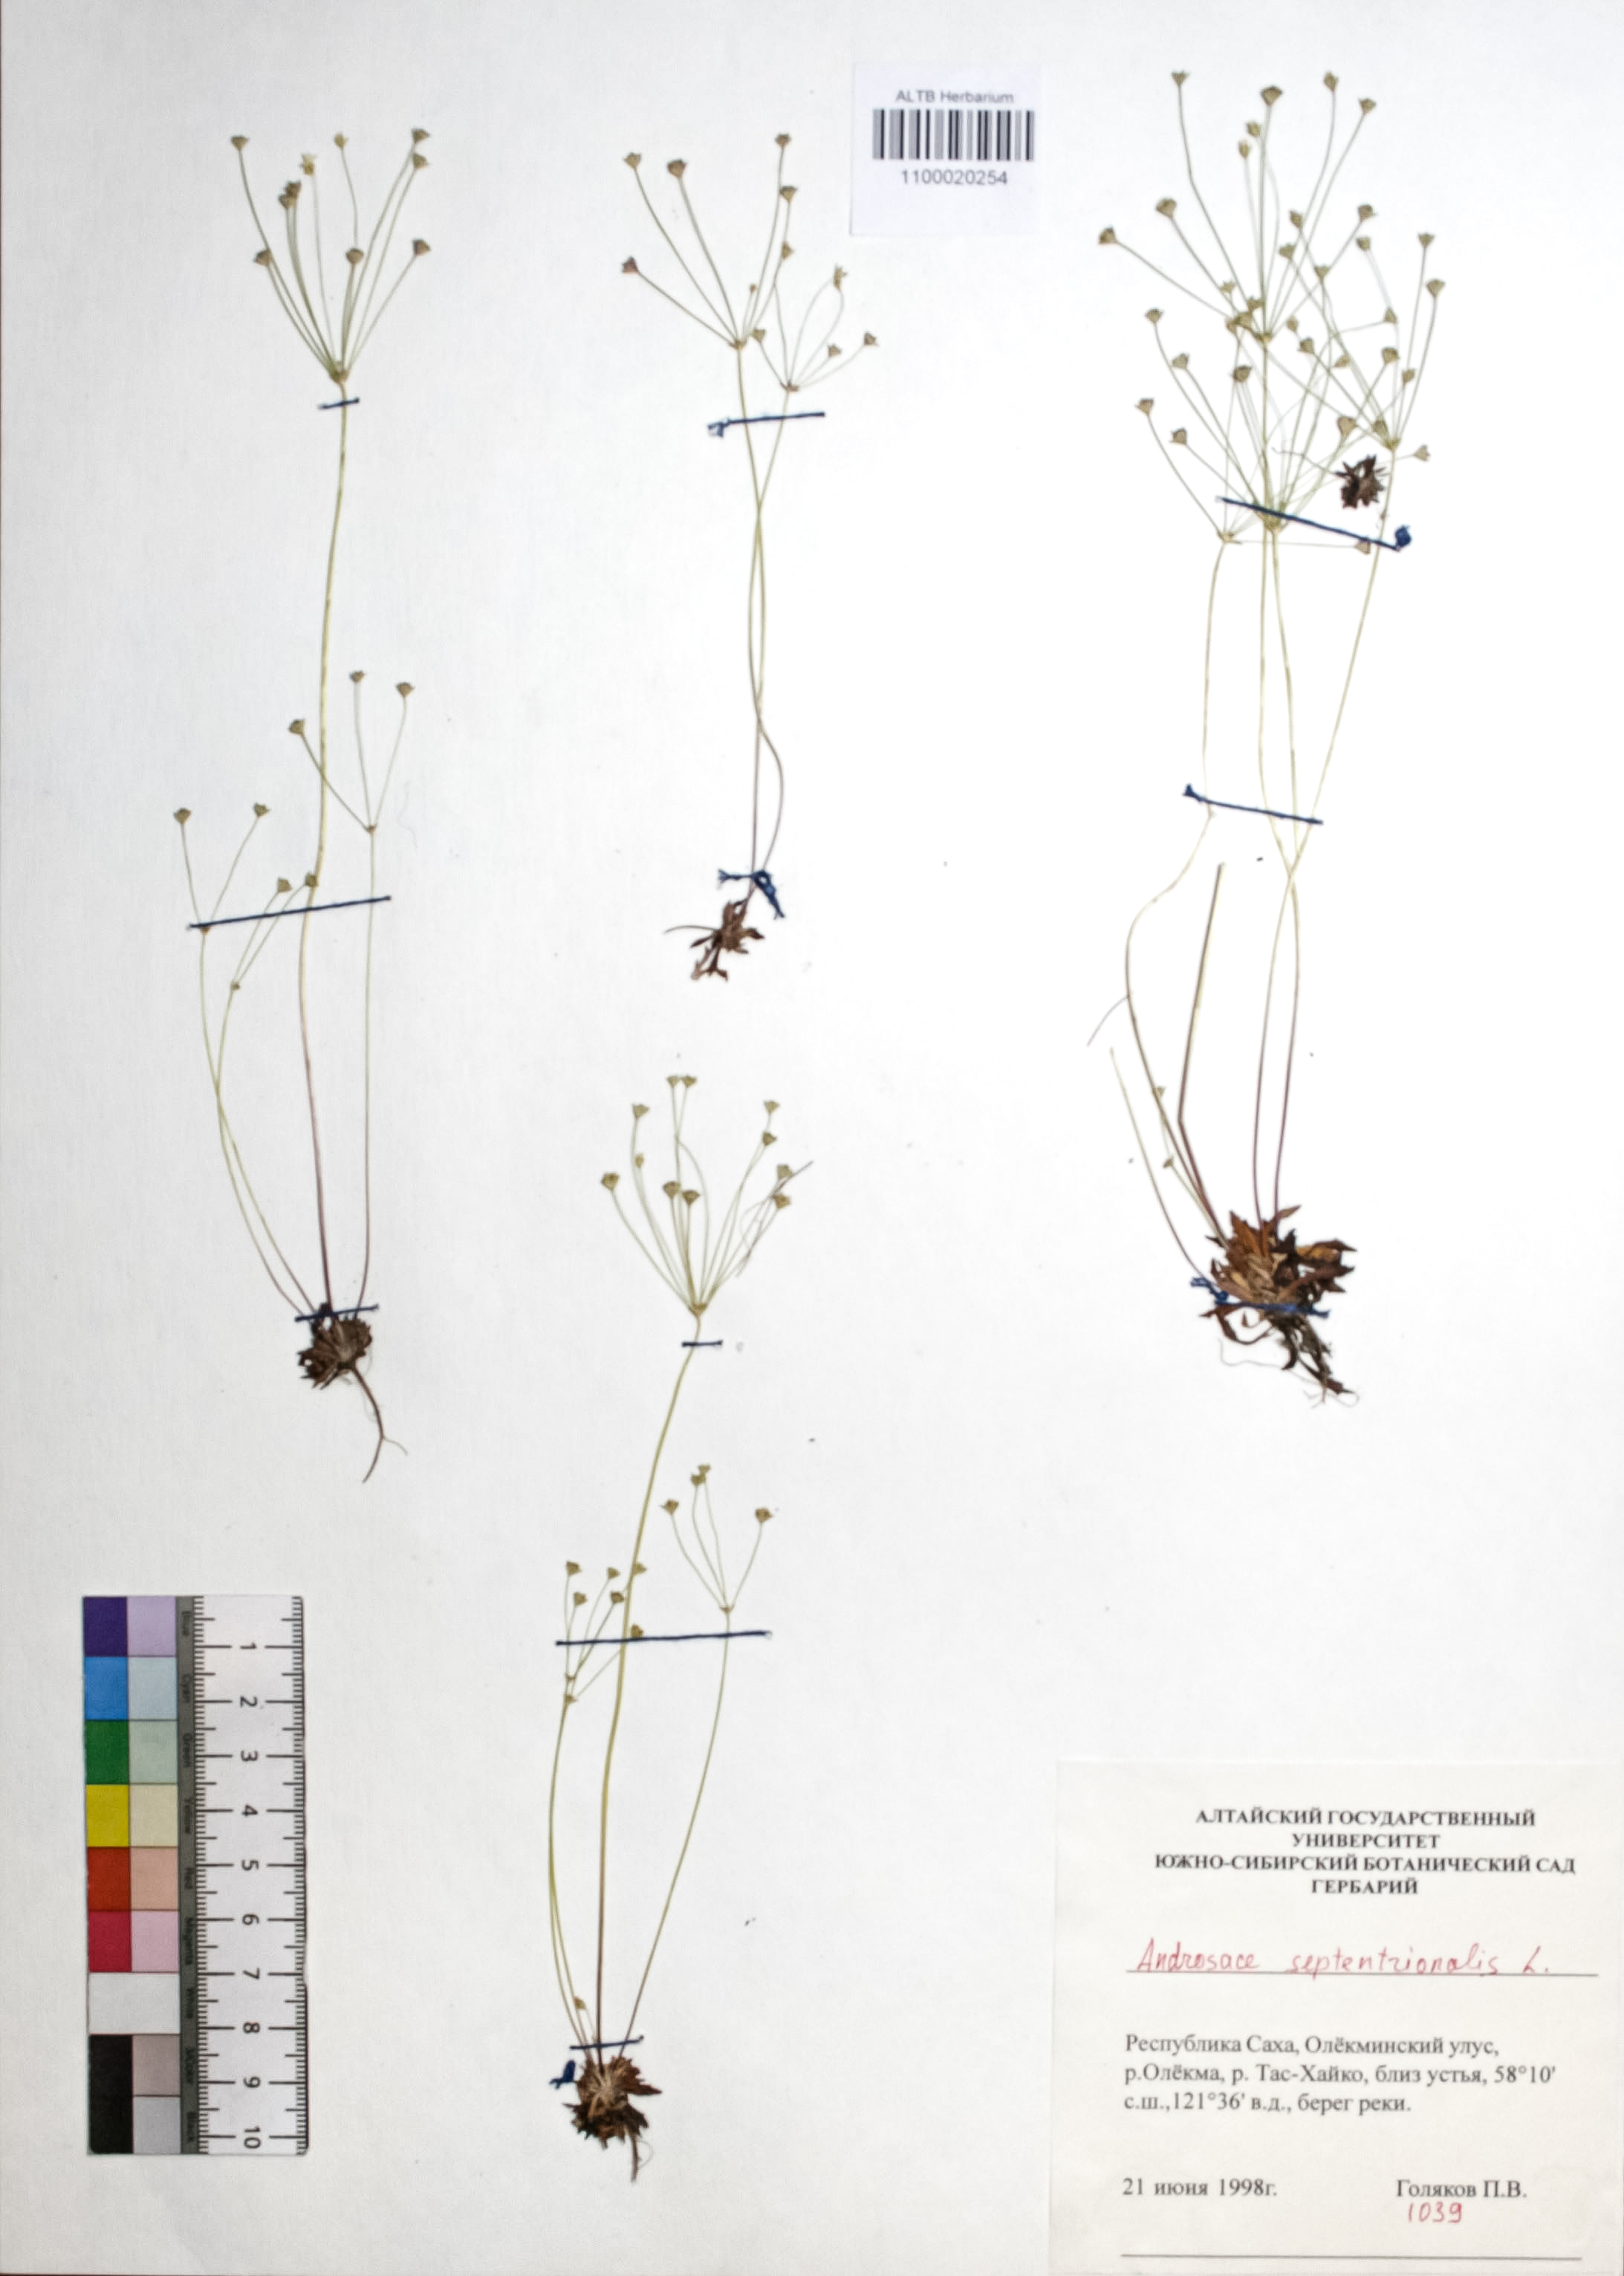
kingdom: Plantae
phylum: Tracheophyta
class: Magnoliopsida
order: Ericales
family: Primulaceae
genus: Androsace
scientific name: Androsace septentrionalis
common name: Hairy northern fairy-candelabra
